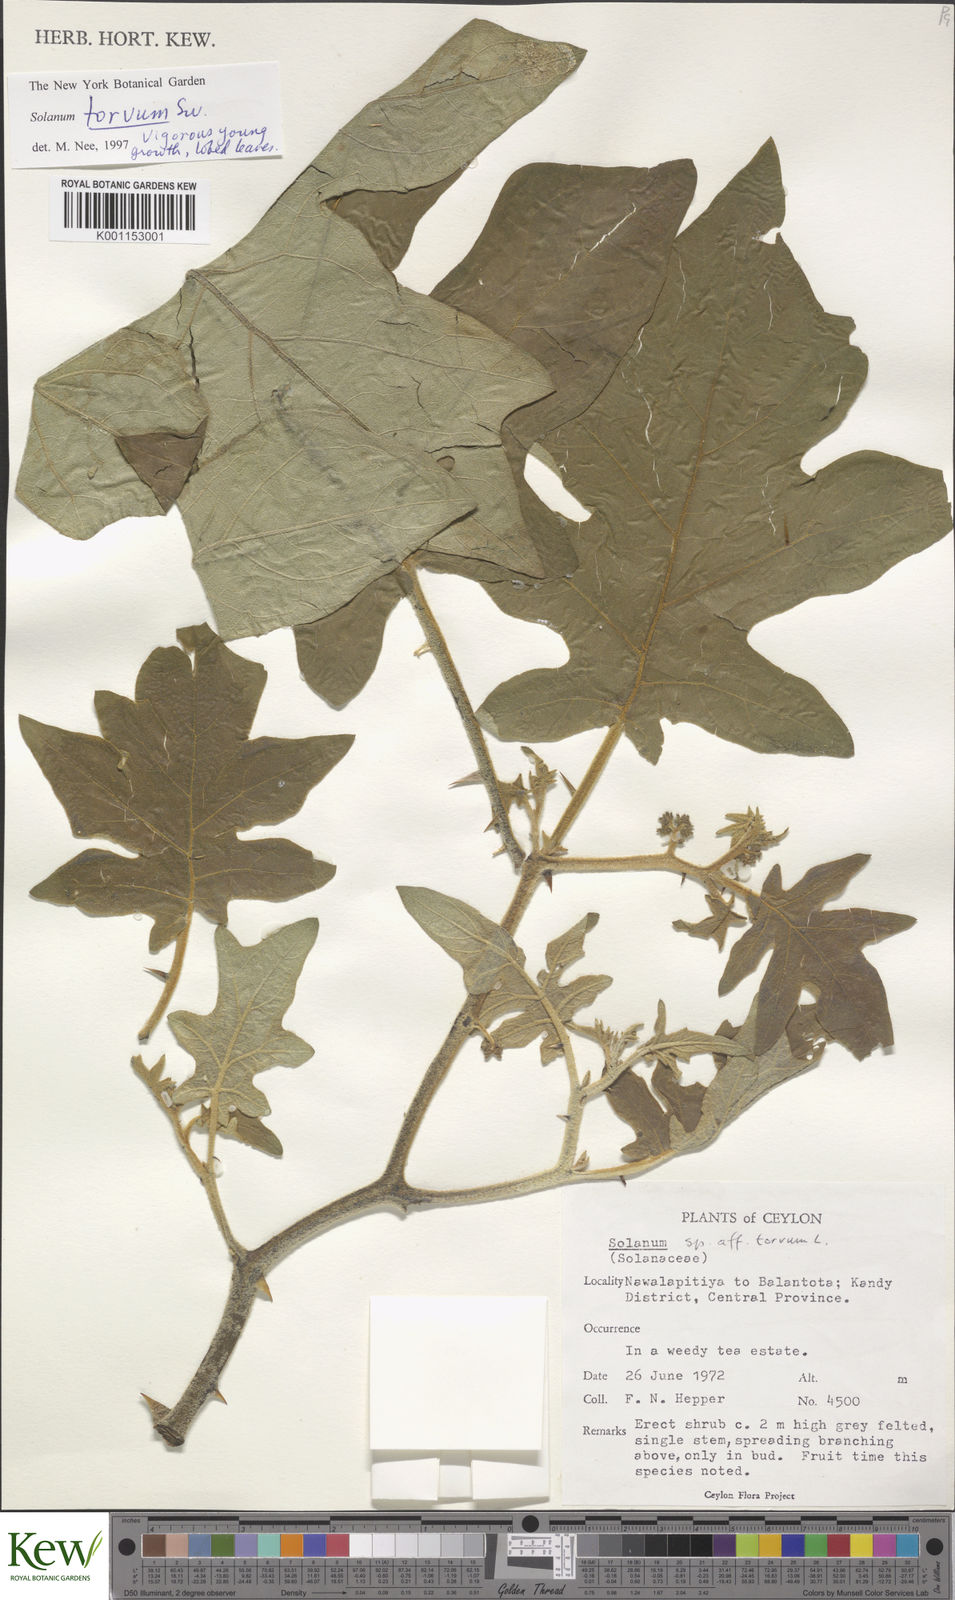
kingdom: Plantae
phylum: Tracheophyta
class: Magnoliopsida
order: Solanales
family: Solanaceae
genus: Solanum
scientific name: Solanum torvum
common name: Turkey berry
